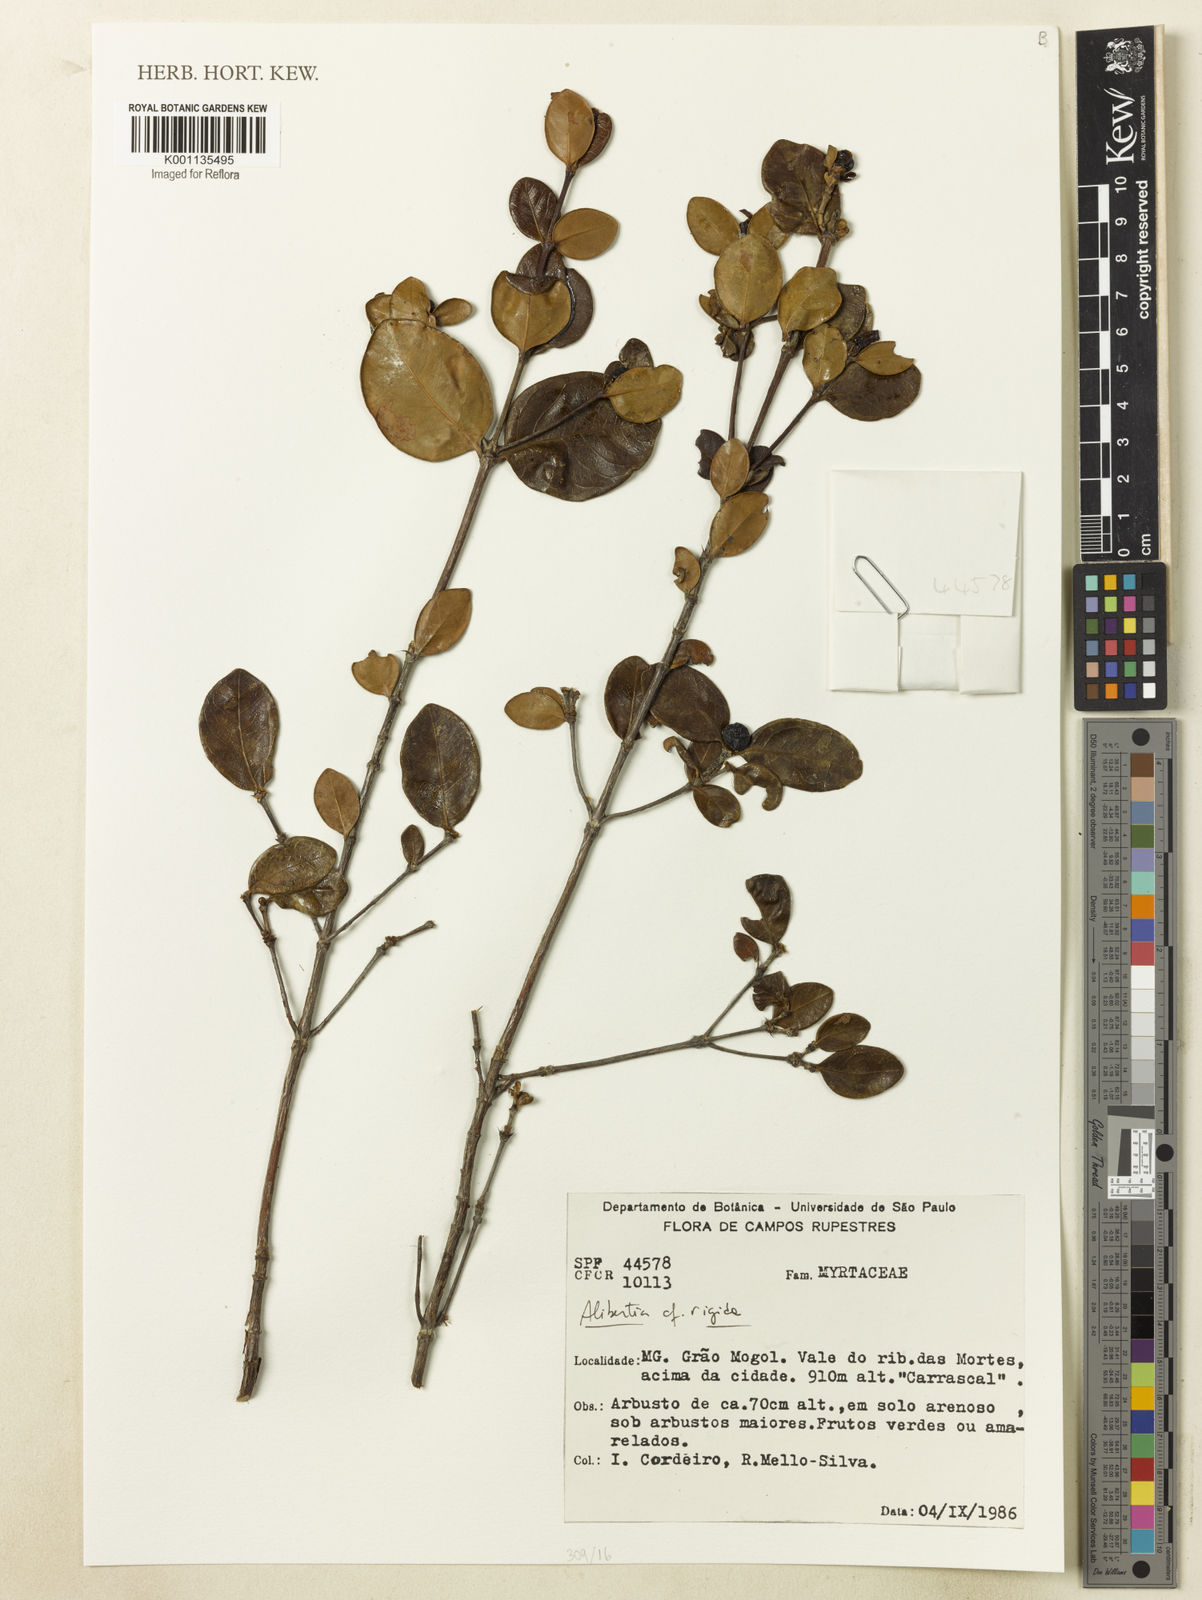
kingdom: Plantae
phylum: Tracheophyta
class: Magnoliopsida
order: Gentianales
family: Rubiaceae
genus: Cordiera
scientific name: Cordiera rigida
